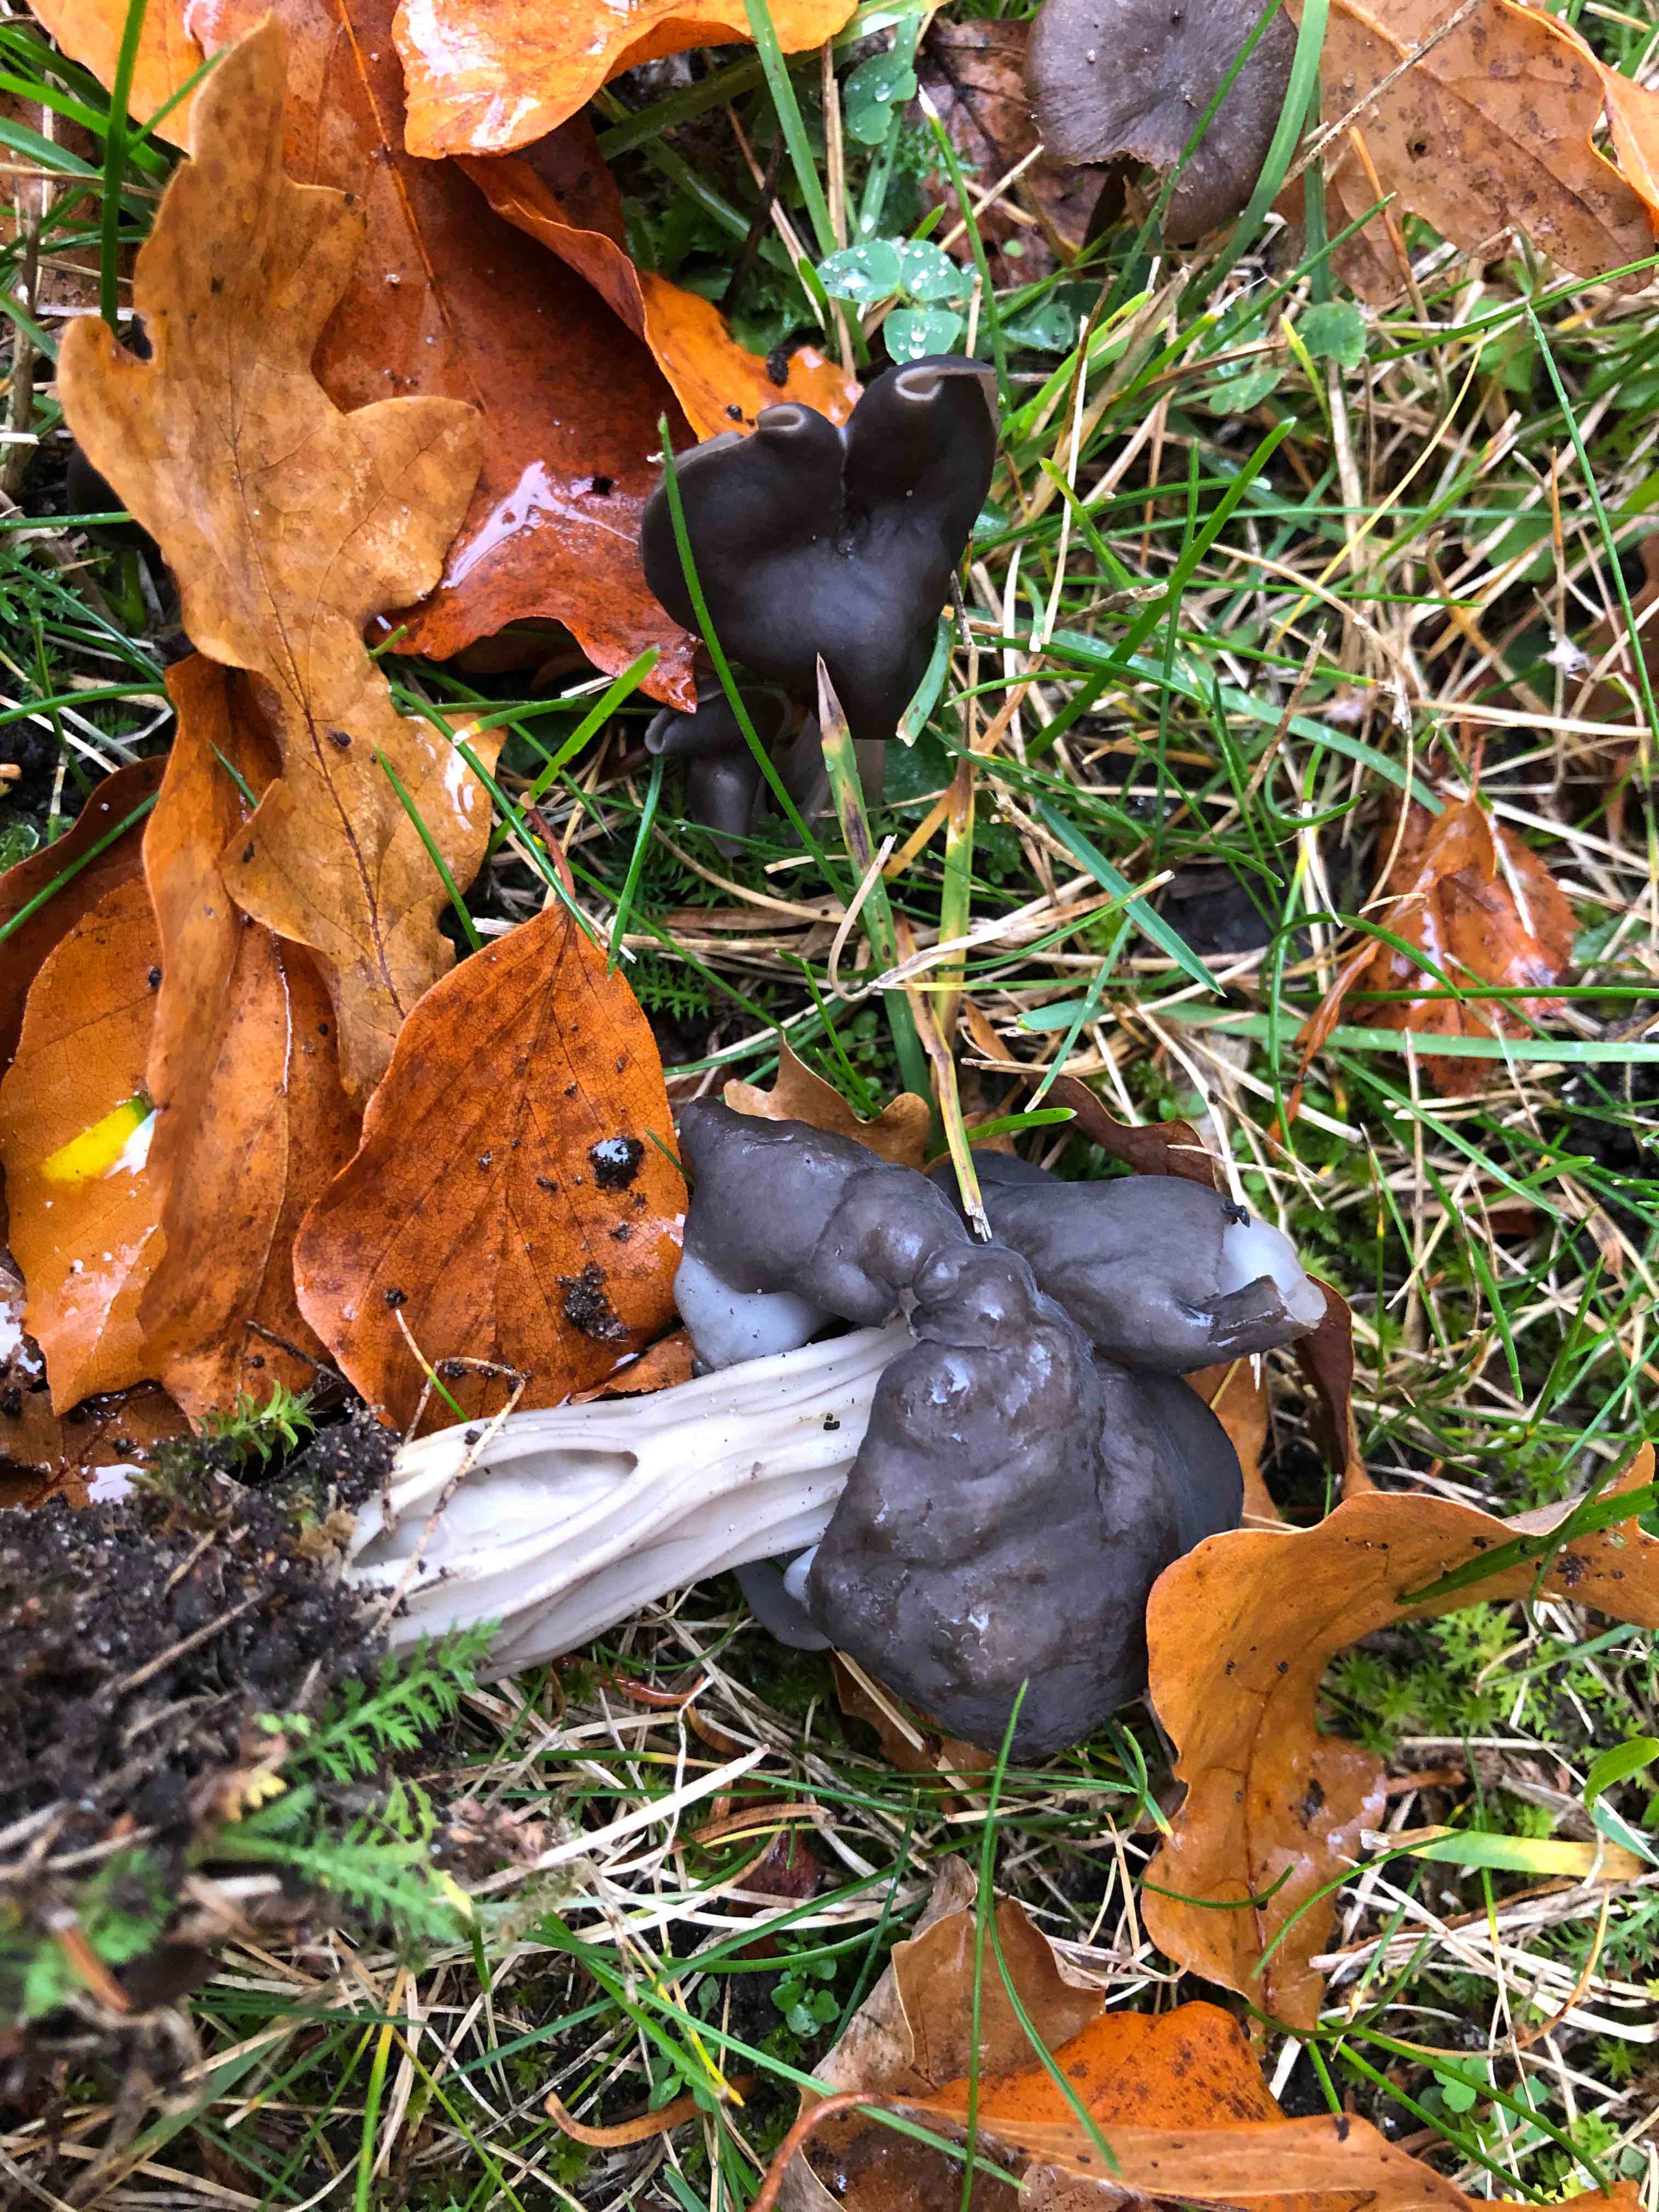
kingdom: Fungi
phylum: Ascomycota
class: Pezizomycetes
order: Pezizales
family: Helvellaceae
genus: Helvella
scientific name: Helvella lacunosa
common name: grubet foldhat
